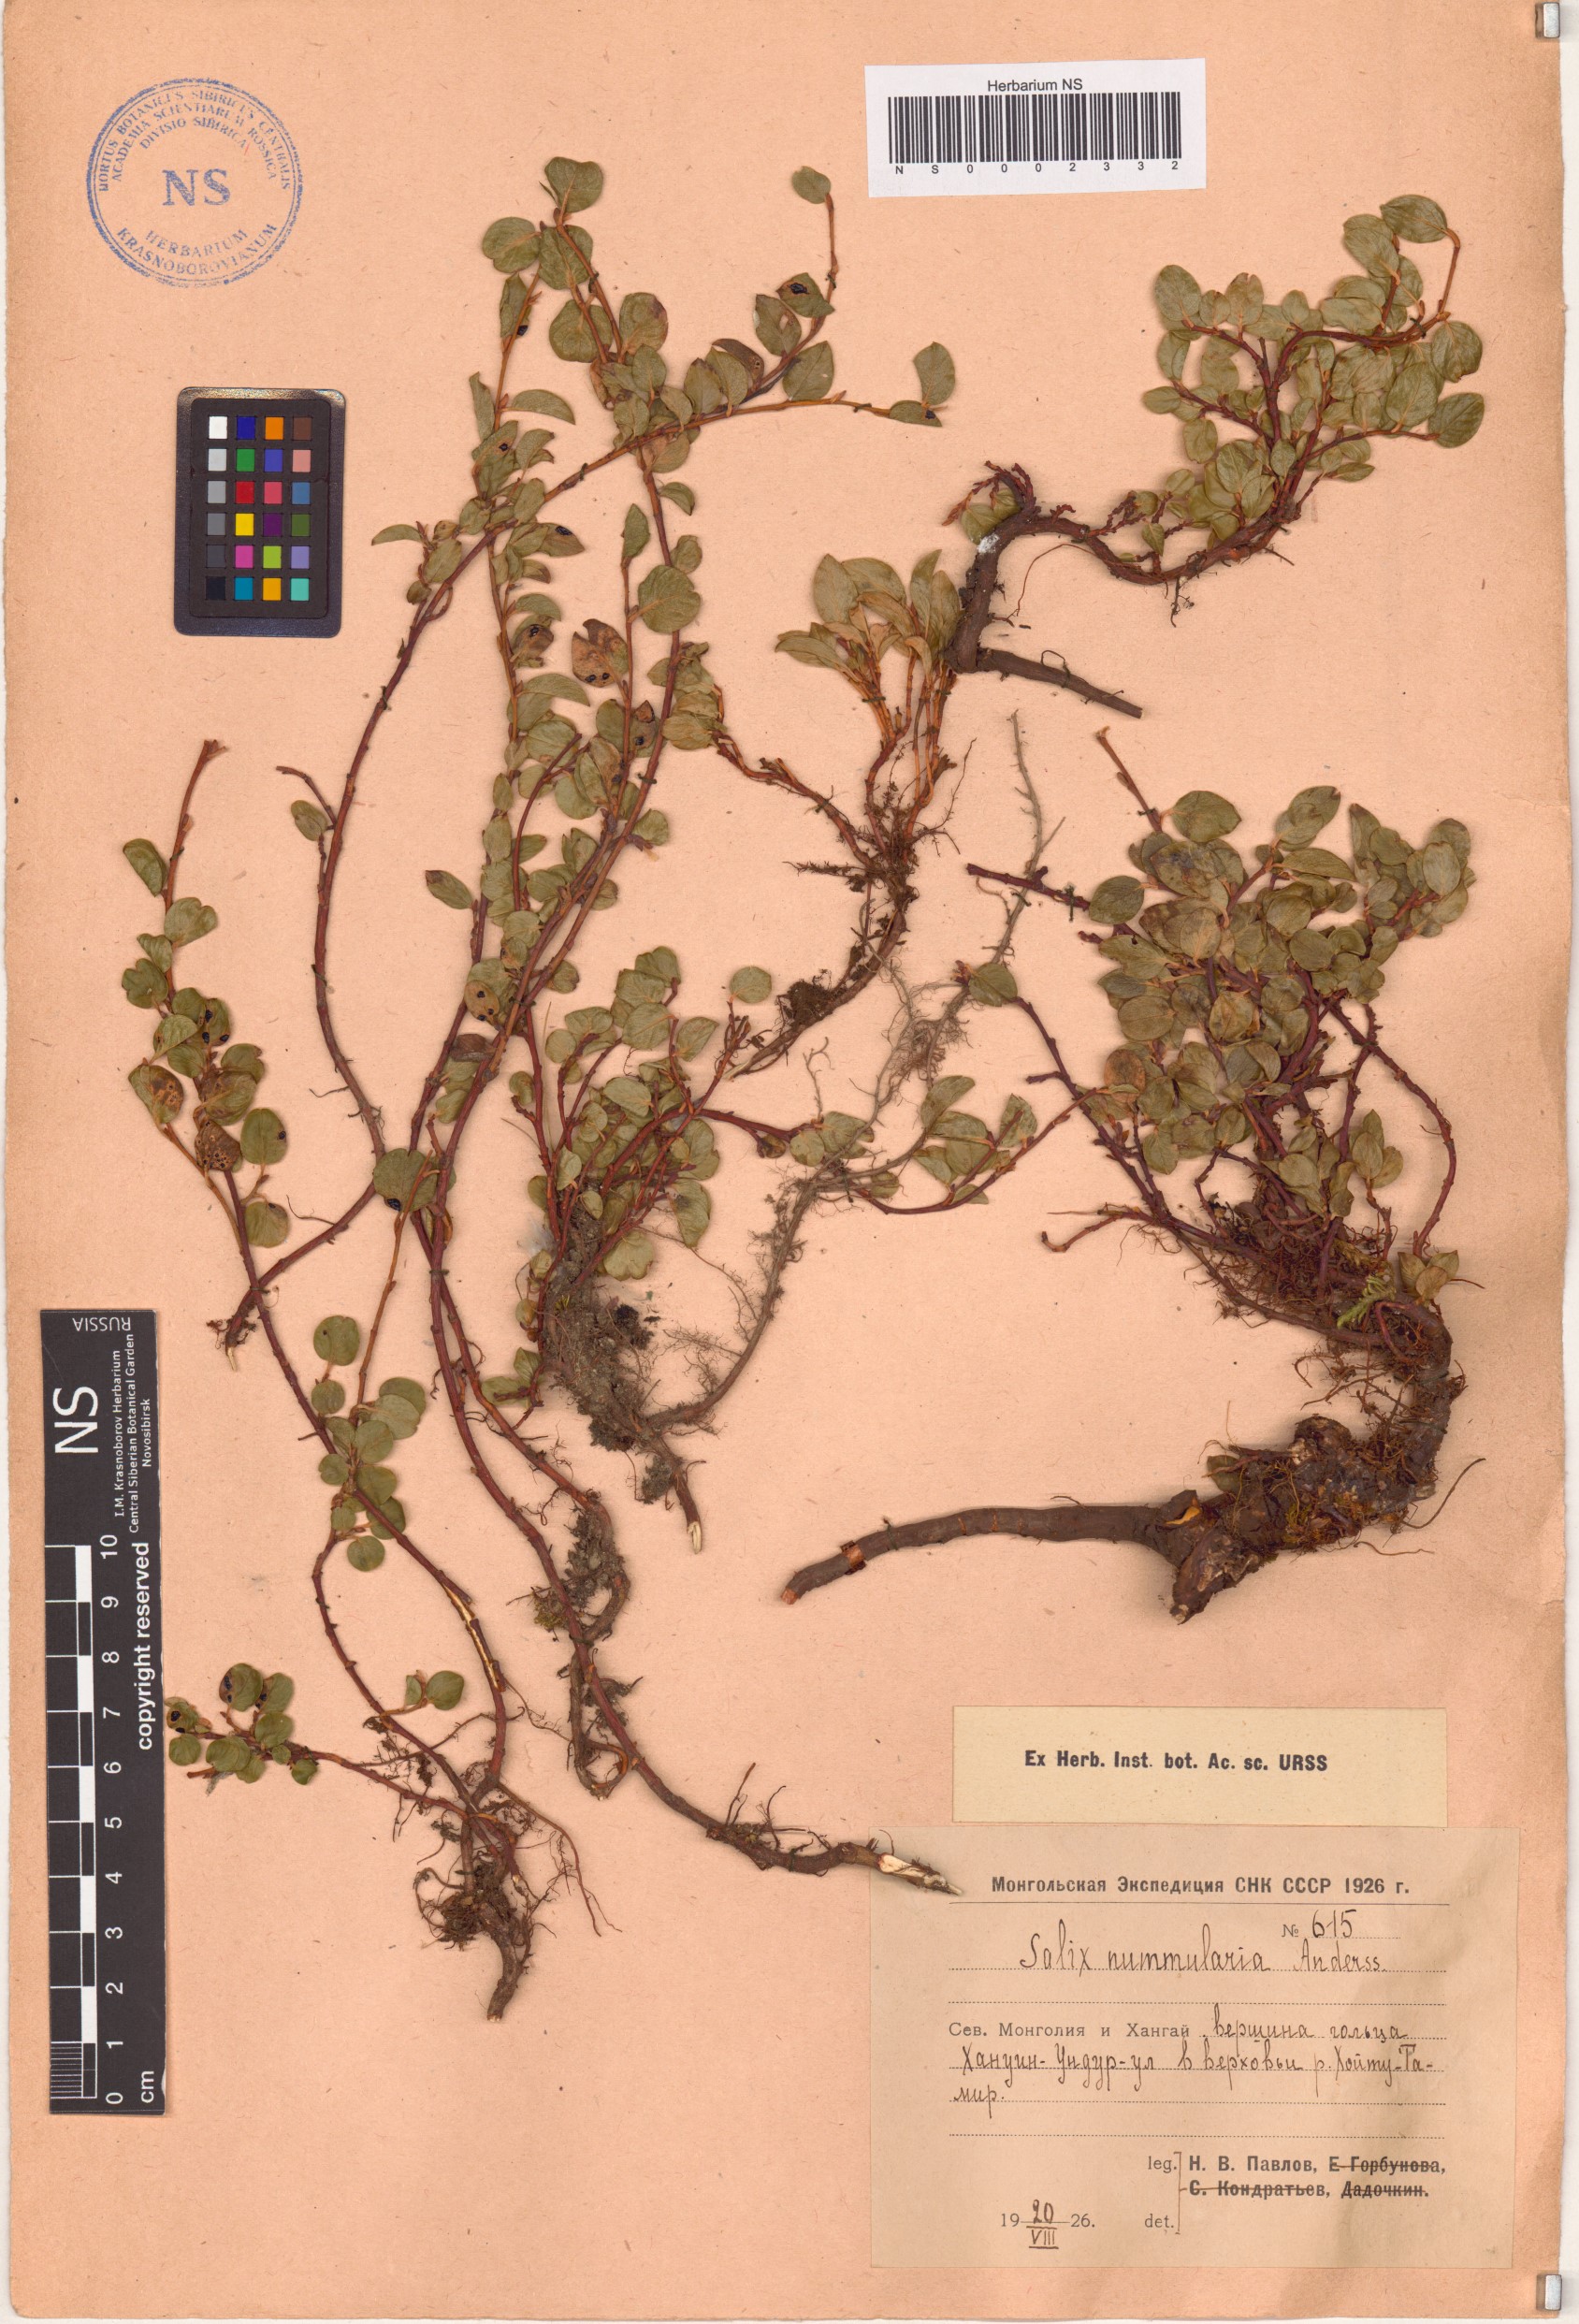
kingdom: Plantae
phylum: Tracheophyta
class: Magnoliopsida
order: Malpighiales
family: Salicaceae
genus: Salix
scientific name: Salix nummularia
